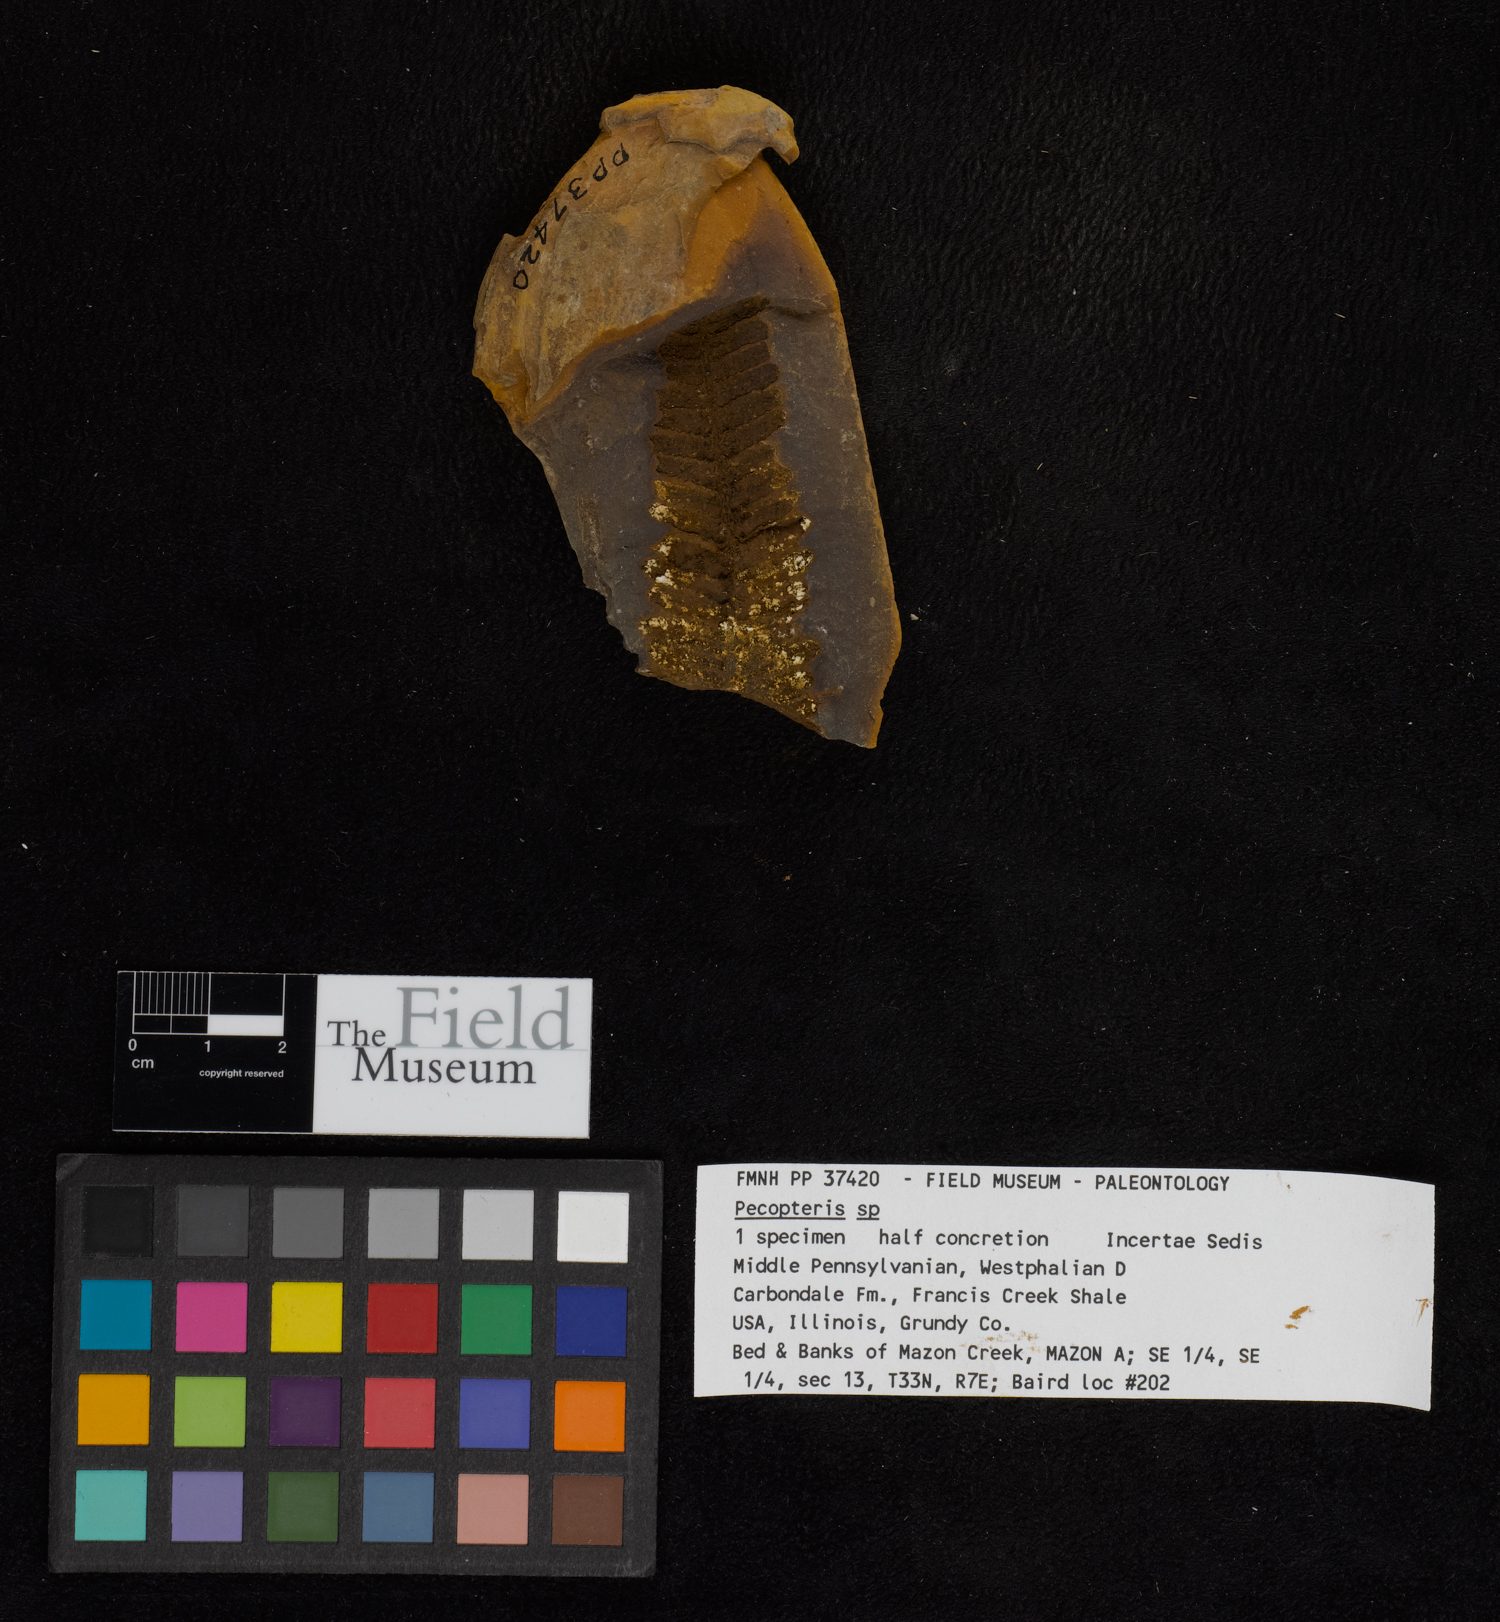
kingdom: Plantae
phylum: Tracheophyta
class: Polypodiopsida
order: Marattiales
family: Asterothecaceae
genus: Pecopteris
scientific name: Pecopteris
